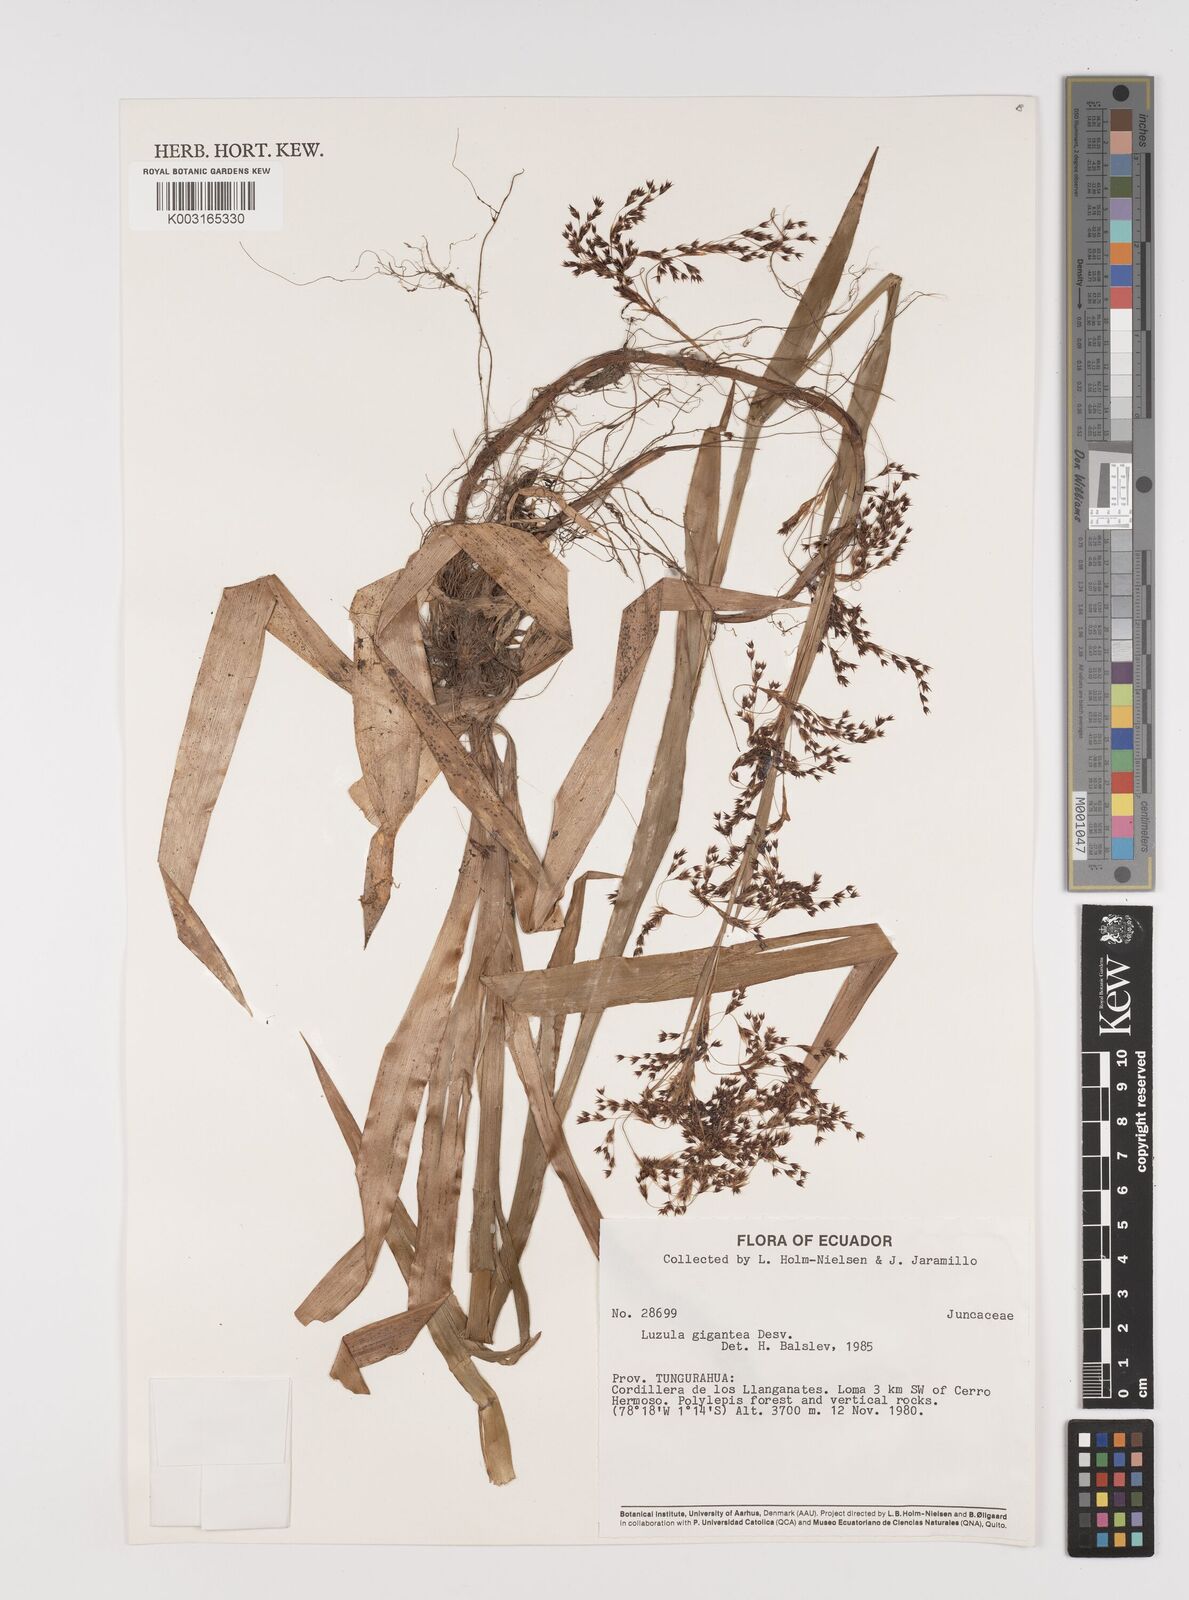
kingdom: Plantae
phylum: Tracheophyta
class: Liliopsida
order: Poales
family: Juncaceae
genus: Luzula
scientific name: Luzula gigantea
